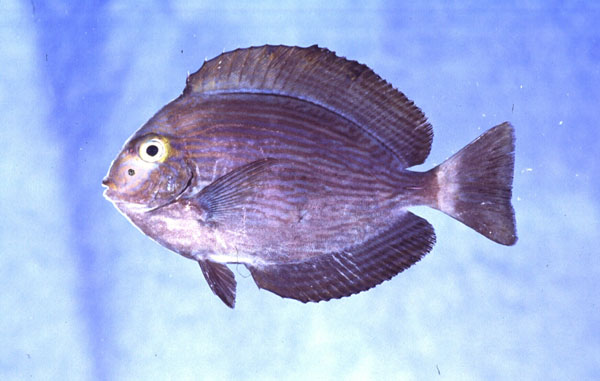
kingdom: Animalia
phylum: Chordata
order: Perciformes
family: Acanthuridae
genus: Acanthurus
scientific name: Acanthurus mata
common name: Bleeker's surgeonfish
